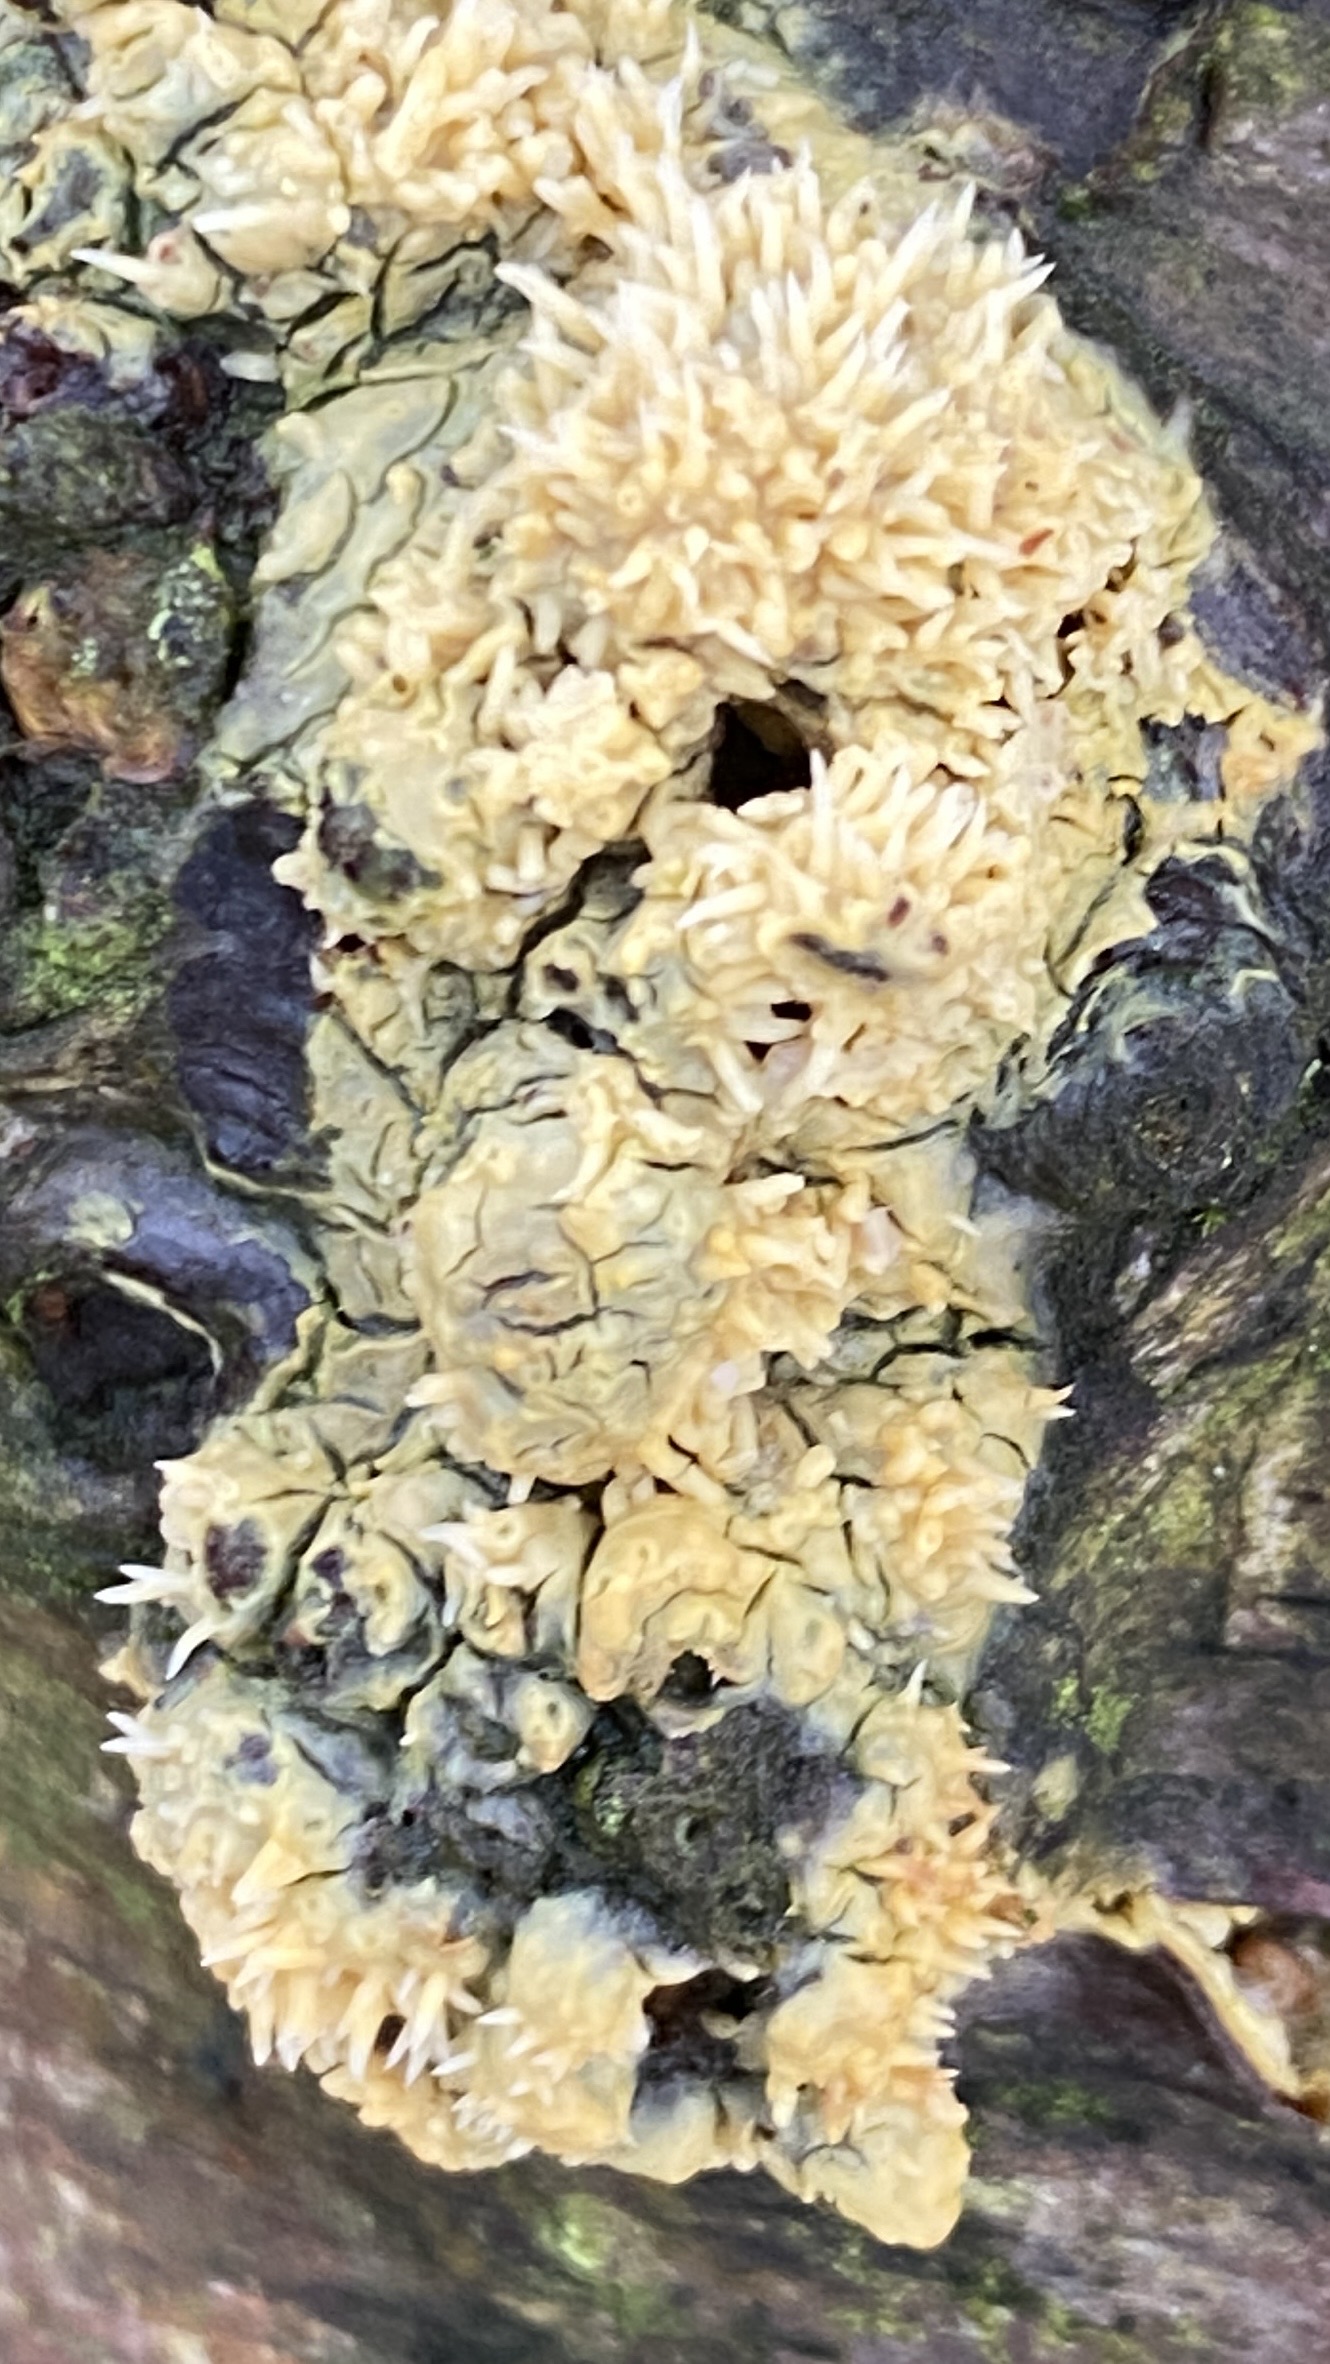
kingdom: Fungi
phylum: Basidiomycota
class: Agaricomycetes
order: Polyporales
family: Meruliaceae
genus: Sarcodontia
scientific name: Sarcodontia
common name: vokspig
